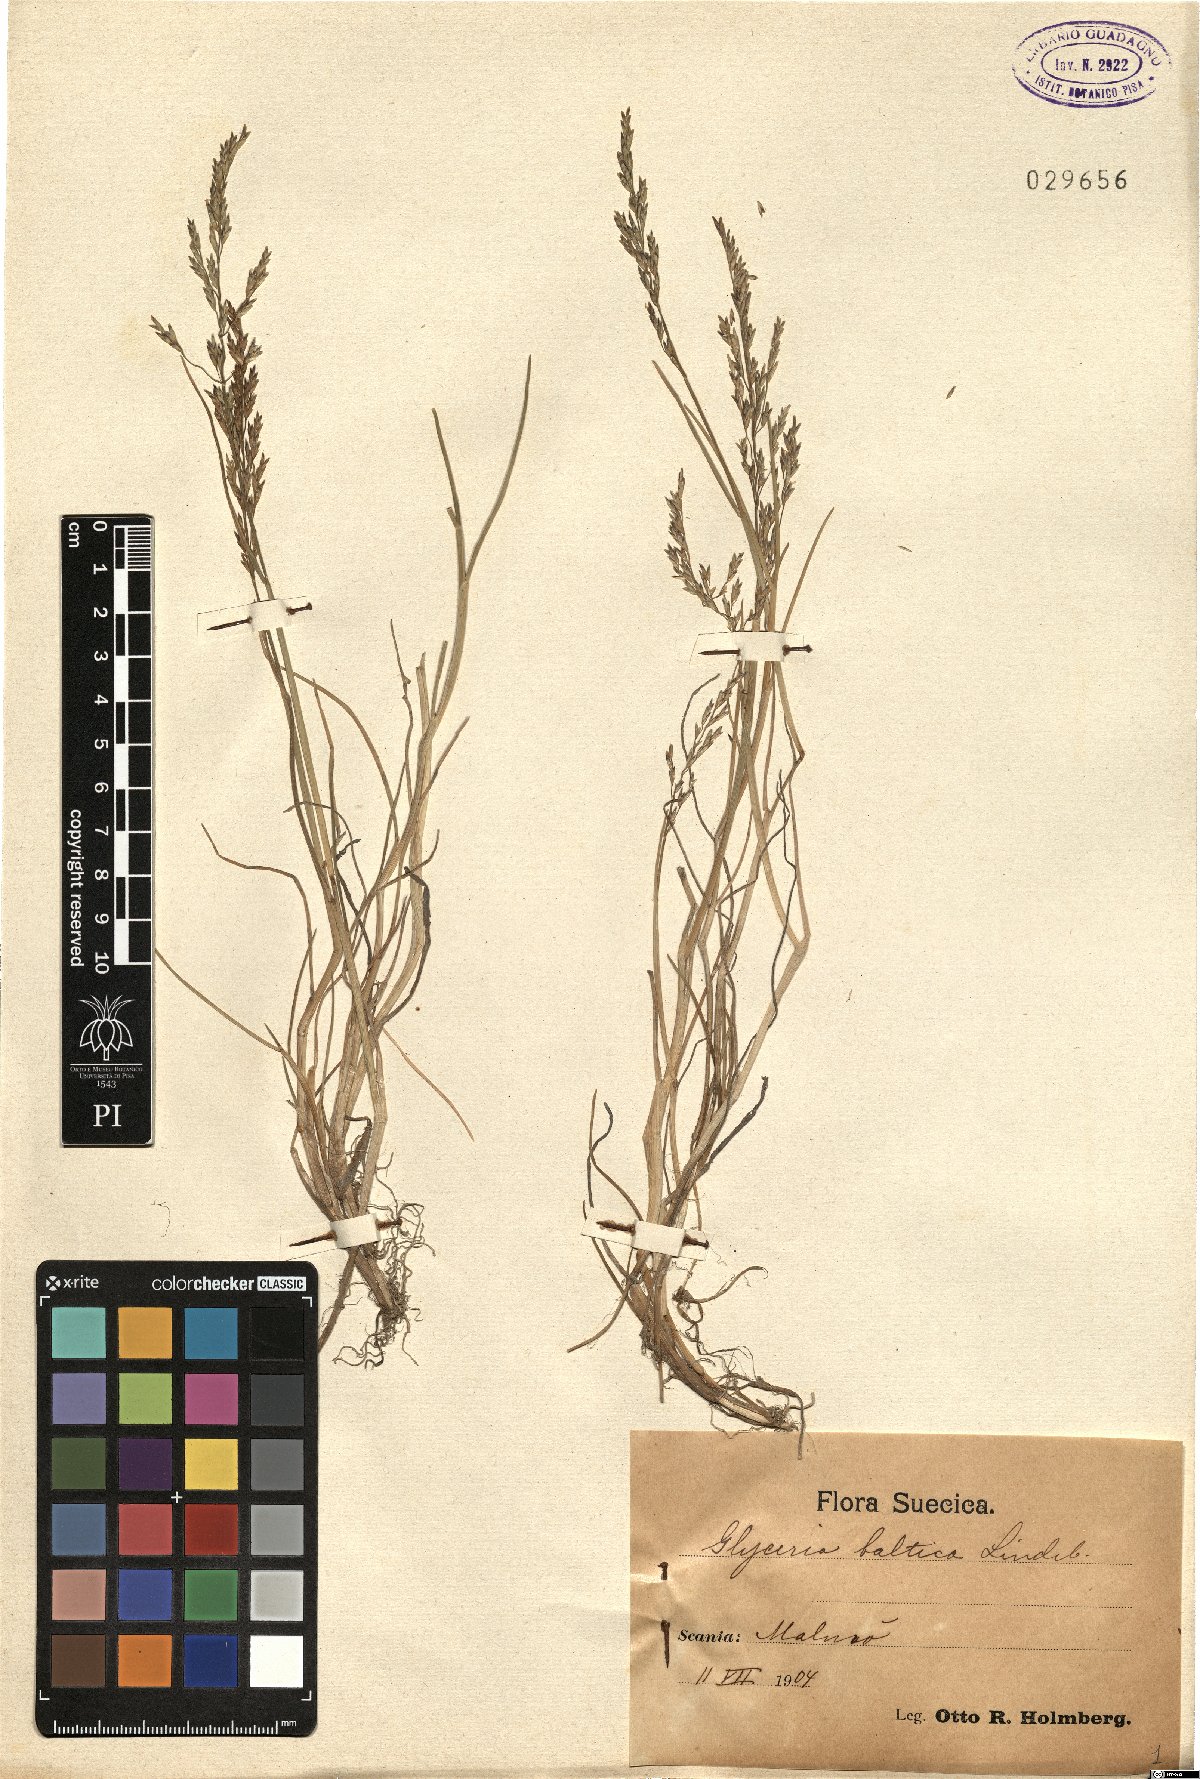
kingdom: Plantae
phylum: Tracheophyta
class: Liliopsida
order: Poales
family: Poaceae
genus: Puccinellia
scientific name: Puccinellia maritima
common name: Common saltmarsh grass
